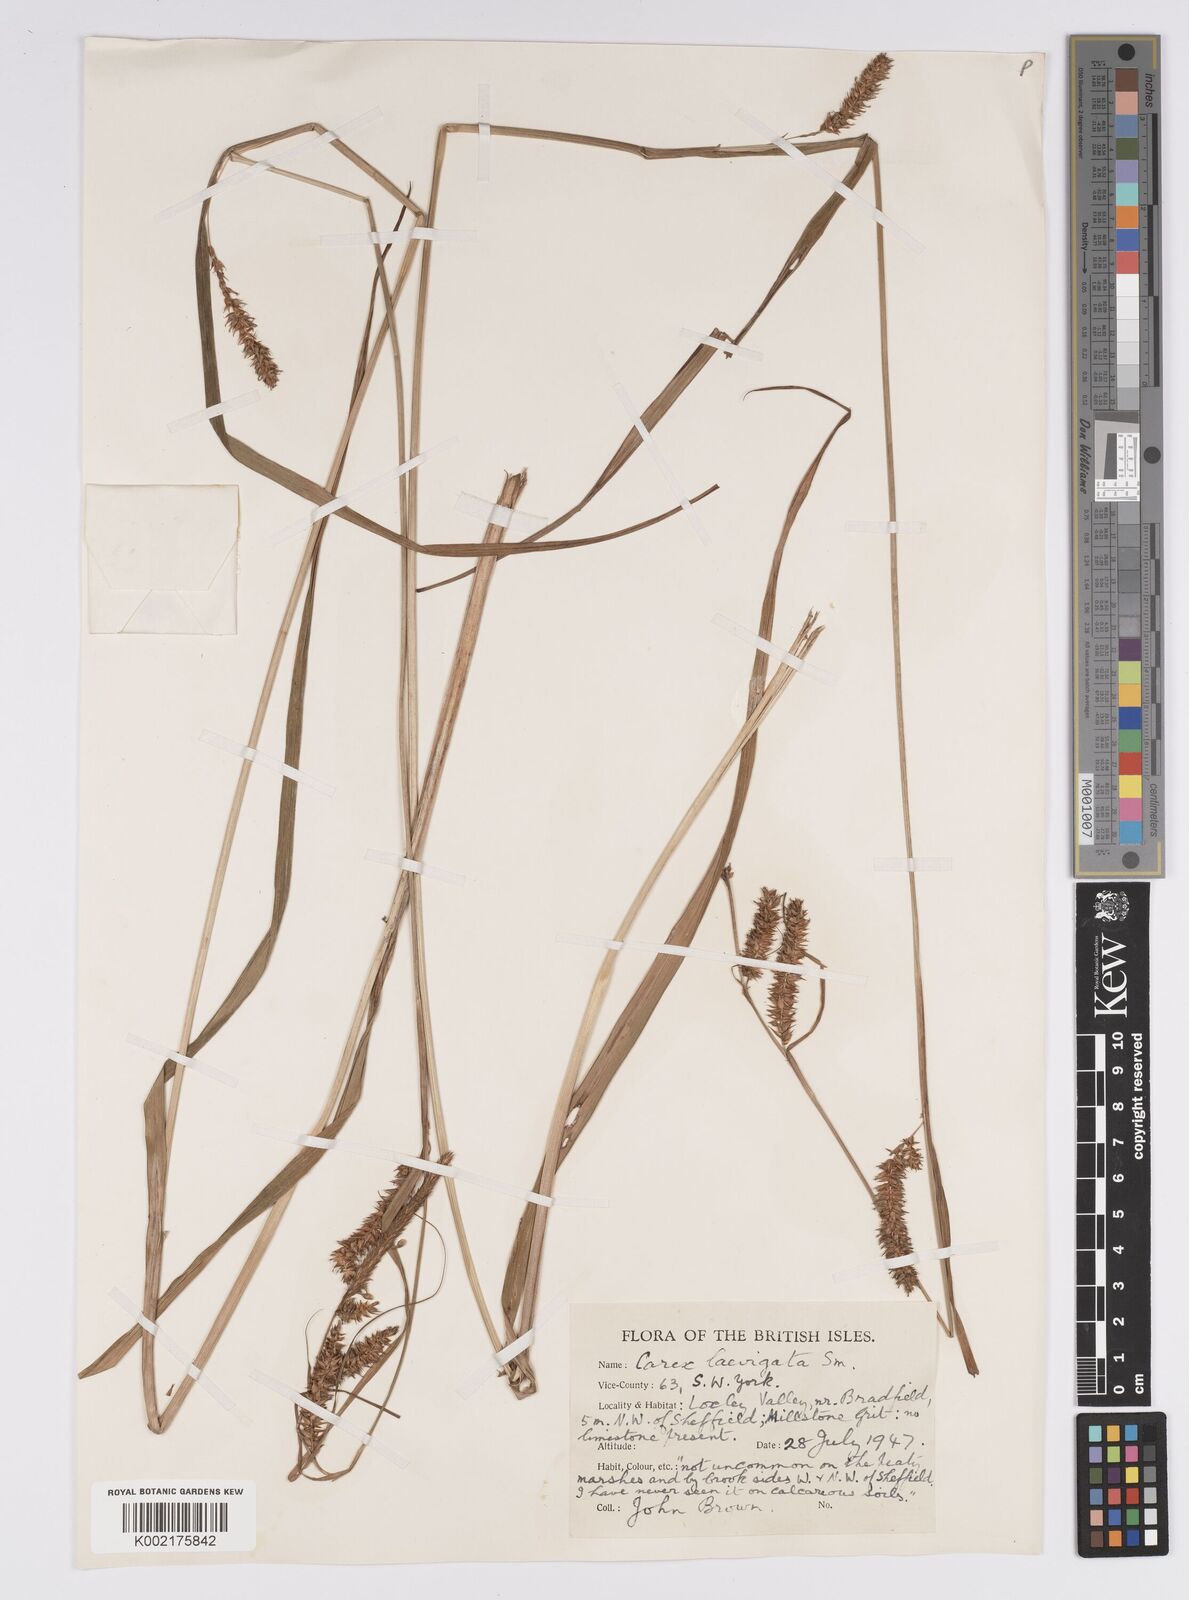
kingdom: Plantae
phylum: Tracheophyta
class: Liliopsida
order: Poales
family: Cyperaceae
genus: Carex
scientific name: Carex laevigata
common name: Smooth-stalked sedge
